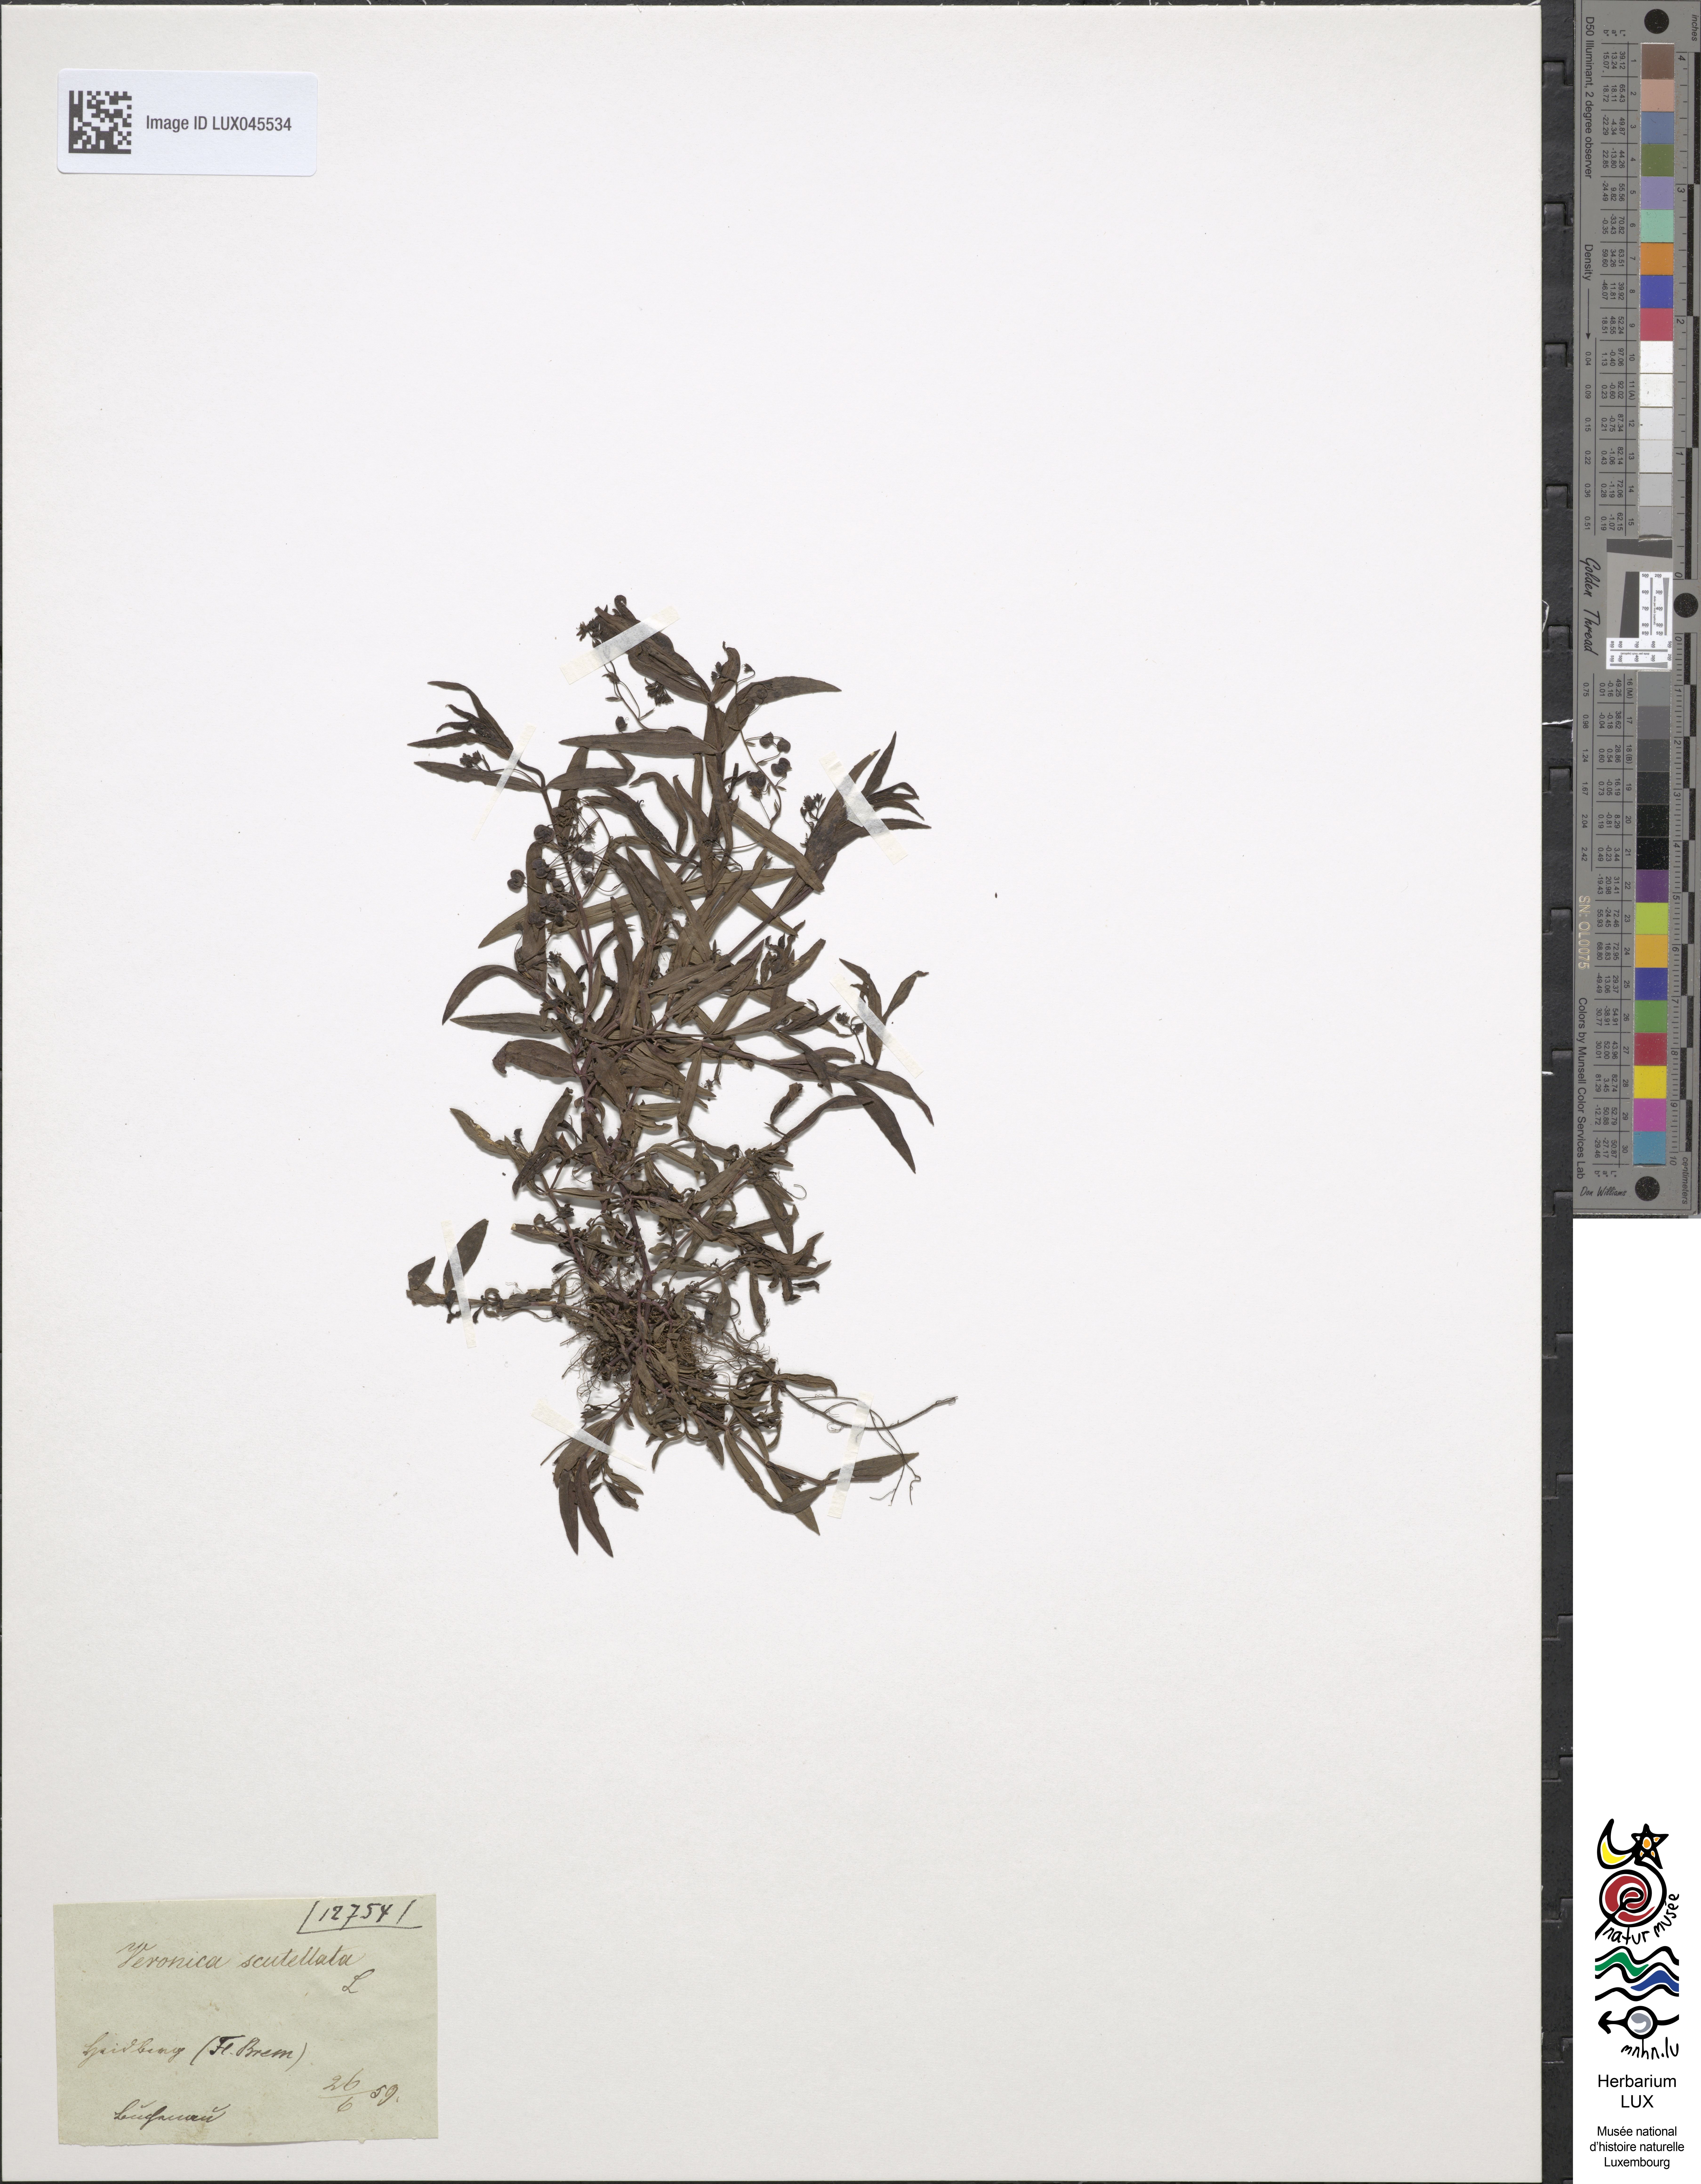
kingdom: Plantae
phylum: Tracheophyta
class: Magnoliopsida
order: Lamiales
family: Plantaginaceae
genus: Veronica
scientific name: Veronica scutellata
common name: Marsh speedwell
